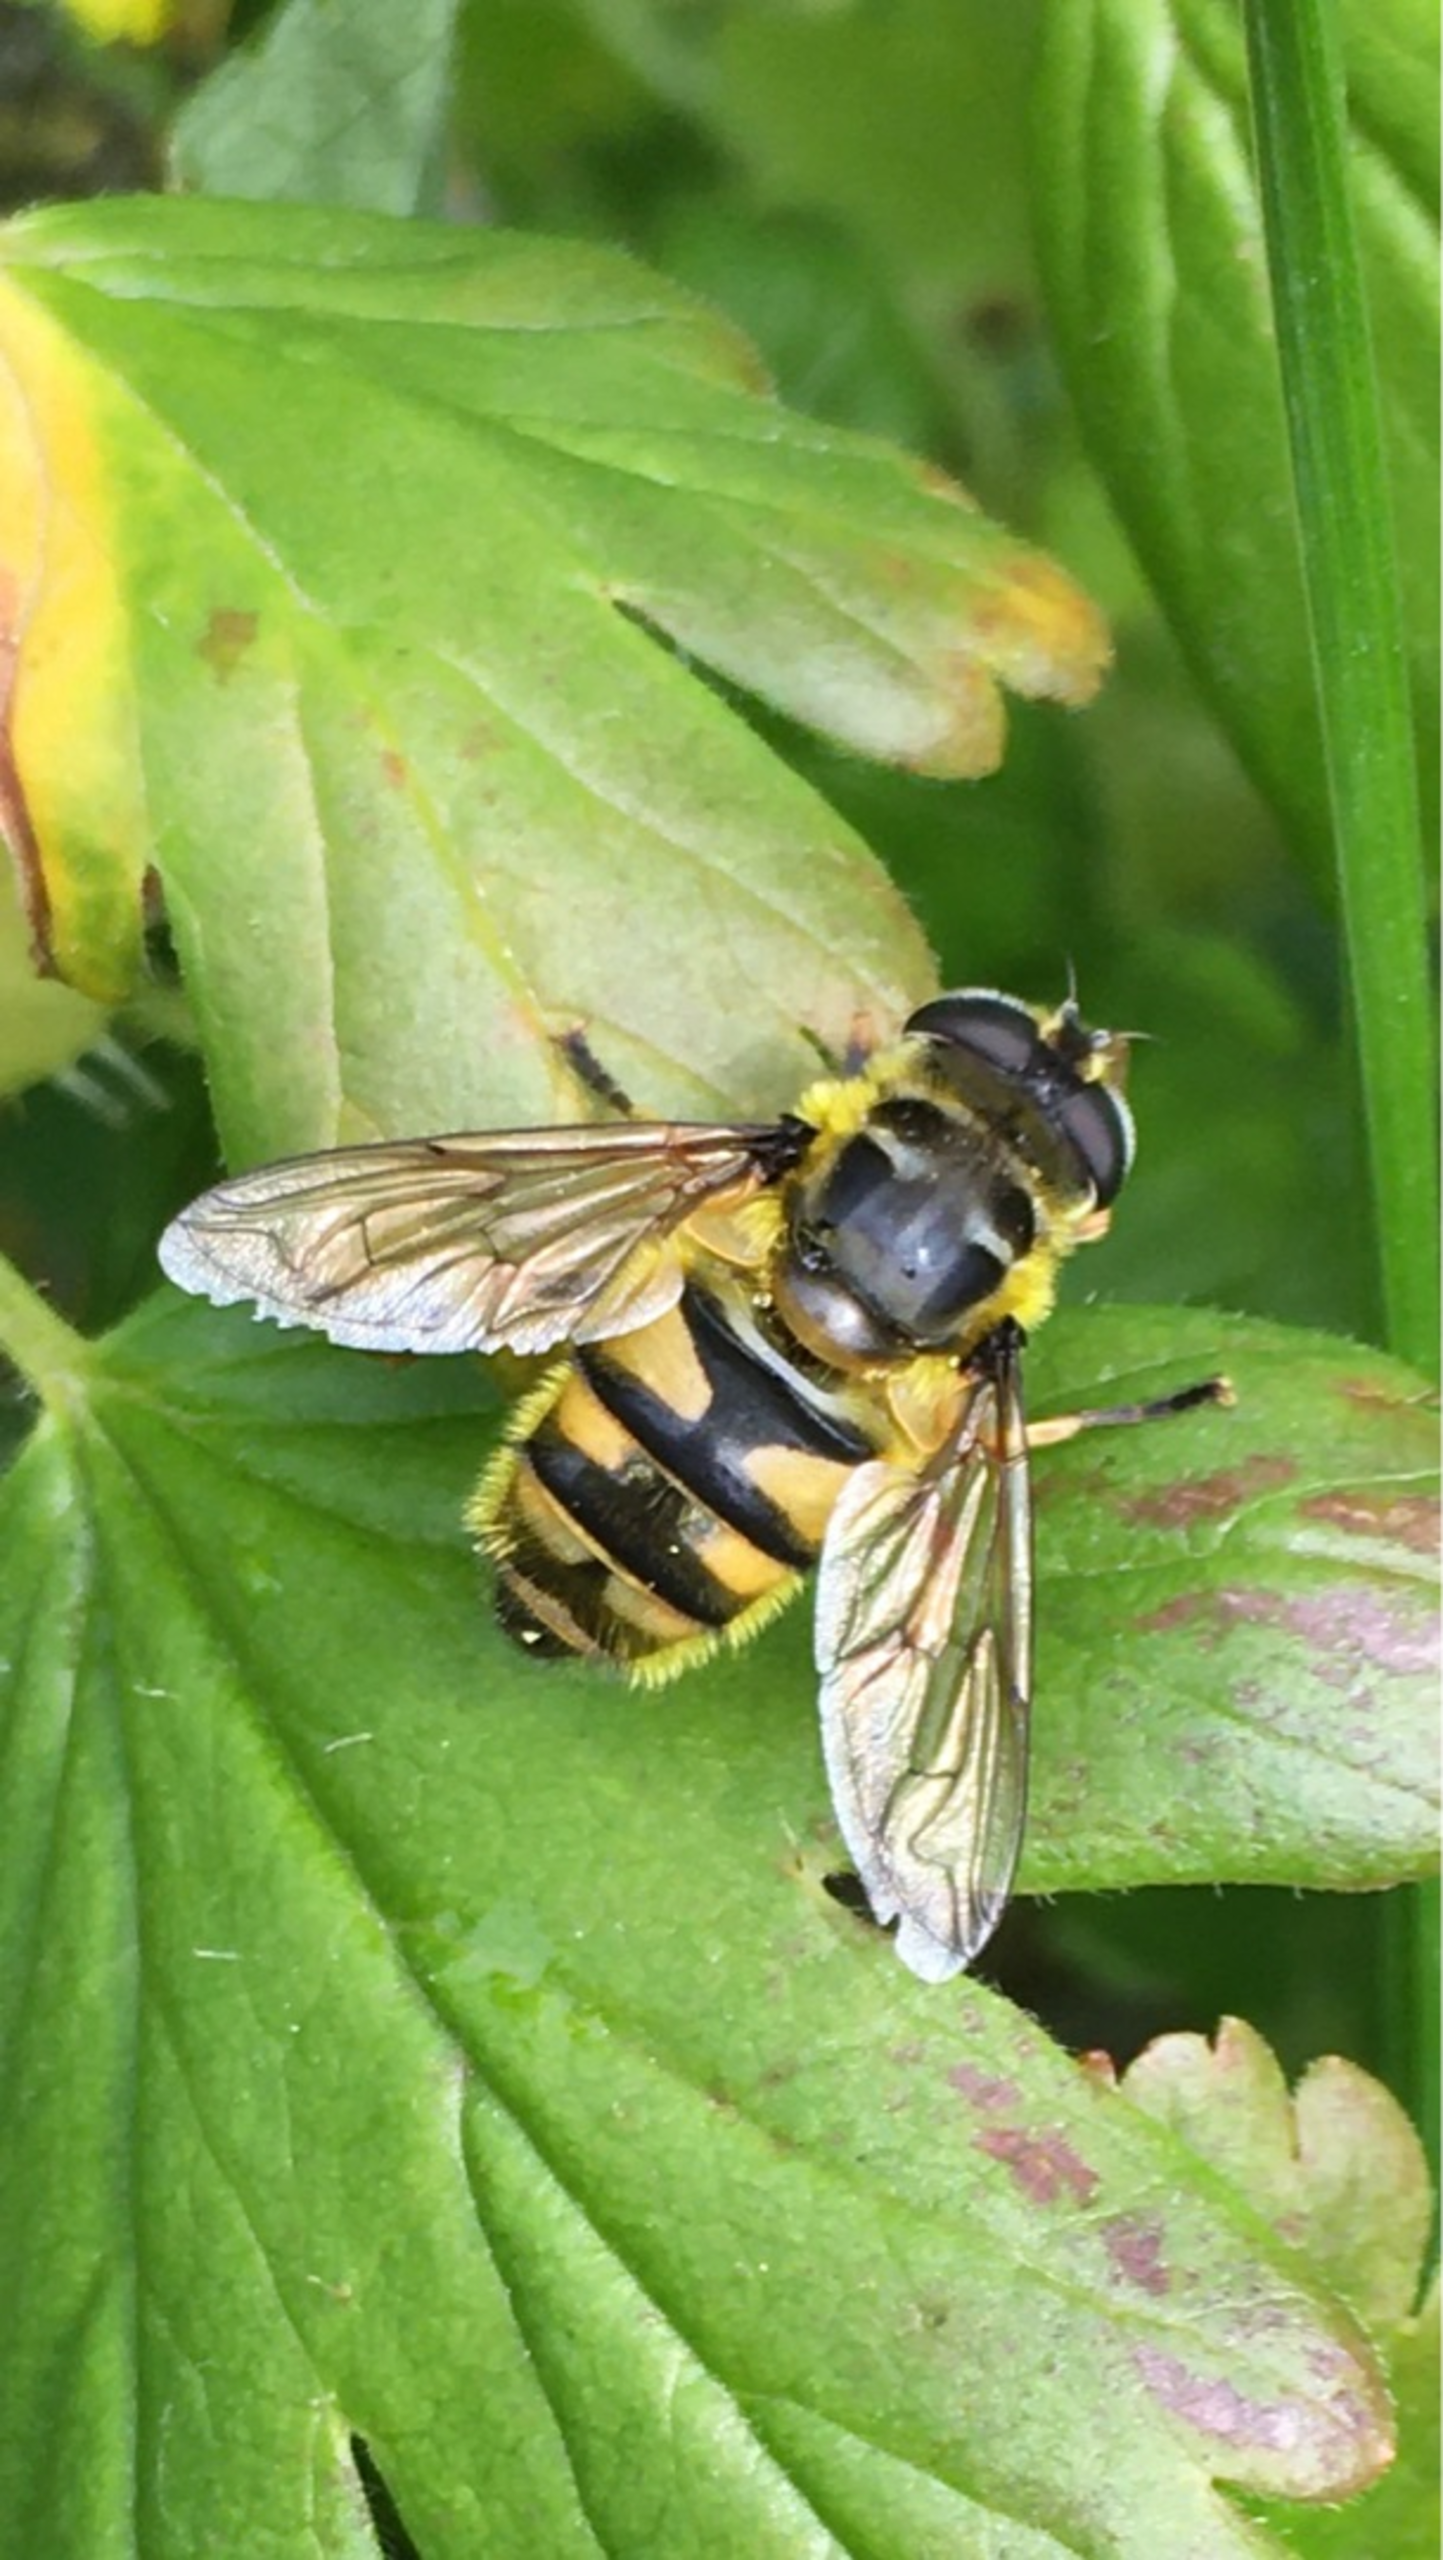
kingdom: Animalia
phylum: Arthropoda
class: Insecta
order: Diptera
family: Syrphidae
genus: Myathropa
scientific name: Myathropa florea
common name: Dødningehoved-svirreflue
